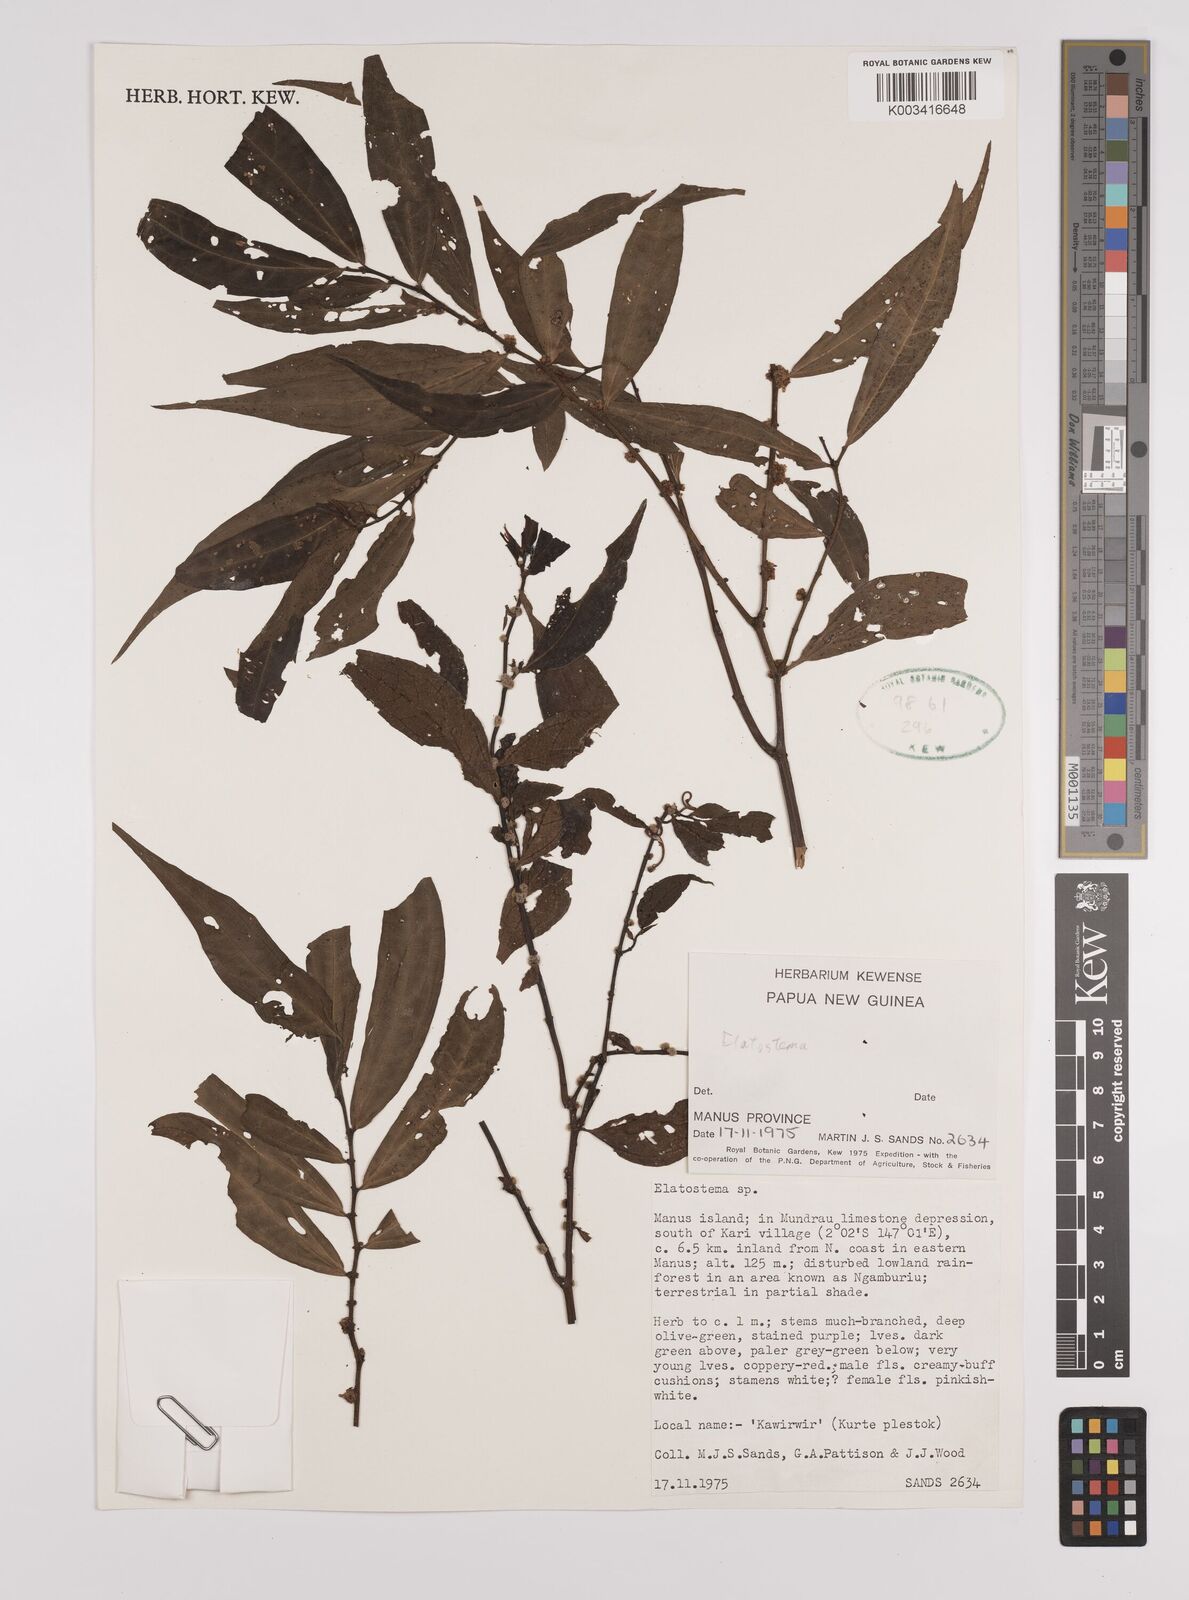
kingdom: Plantae
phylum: Tracheophyta
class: Magnoliopsida
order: Rosales
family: Urticaceae
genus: Elatostema
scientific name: Elatostema
